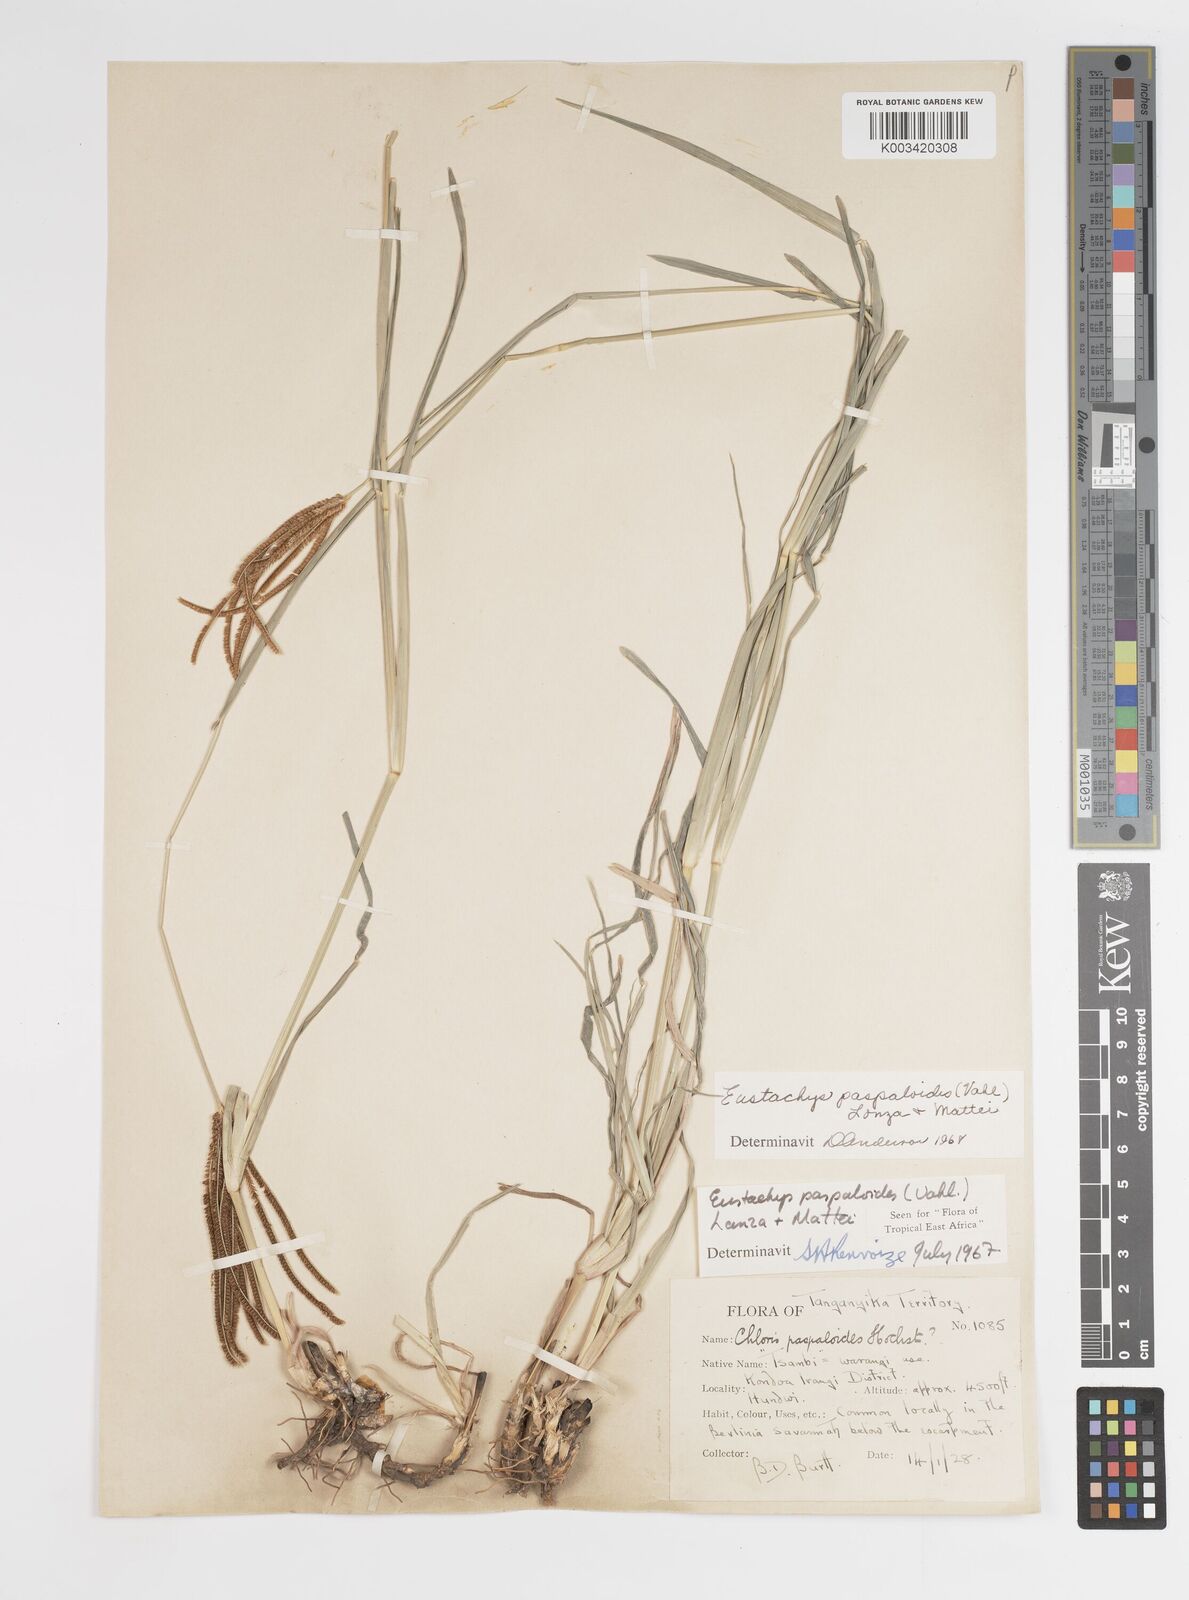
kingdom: Plantae
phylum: Tracheophyta
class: Liliopsida
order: Poales
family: Poaceae
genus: Eustachys
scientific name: Eustachys
